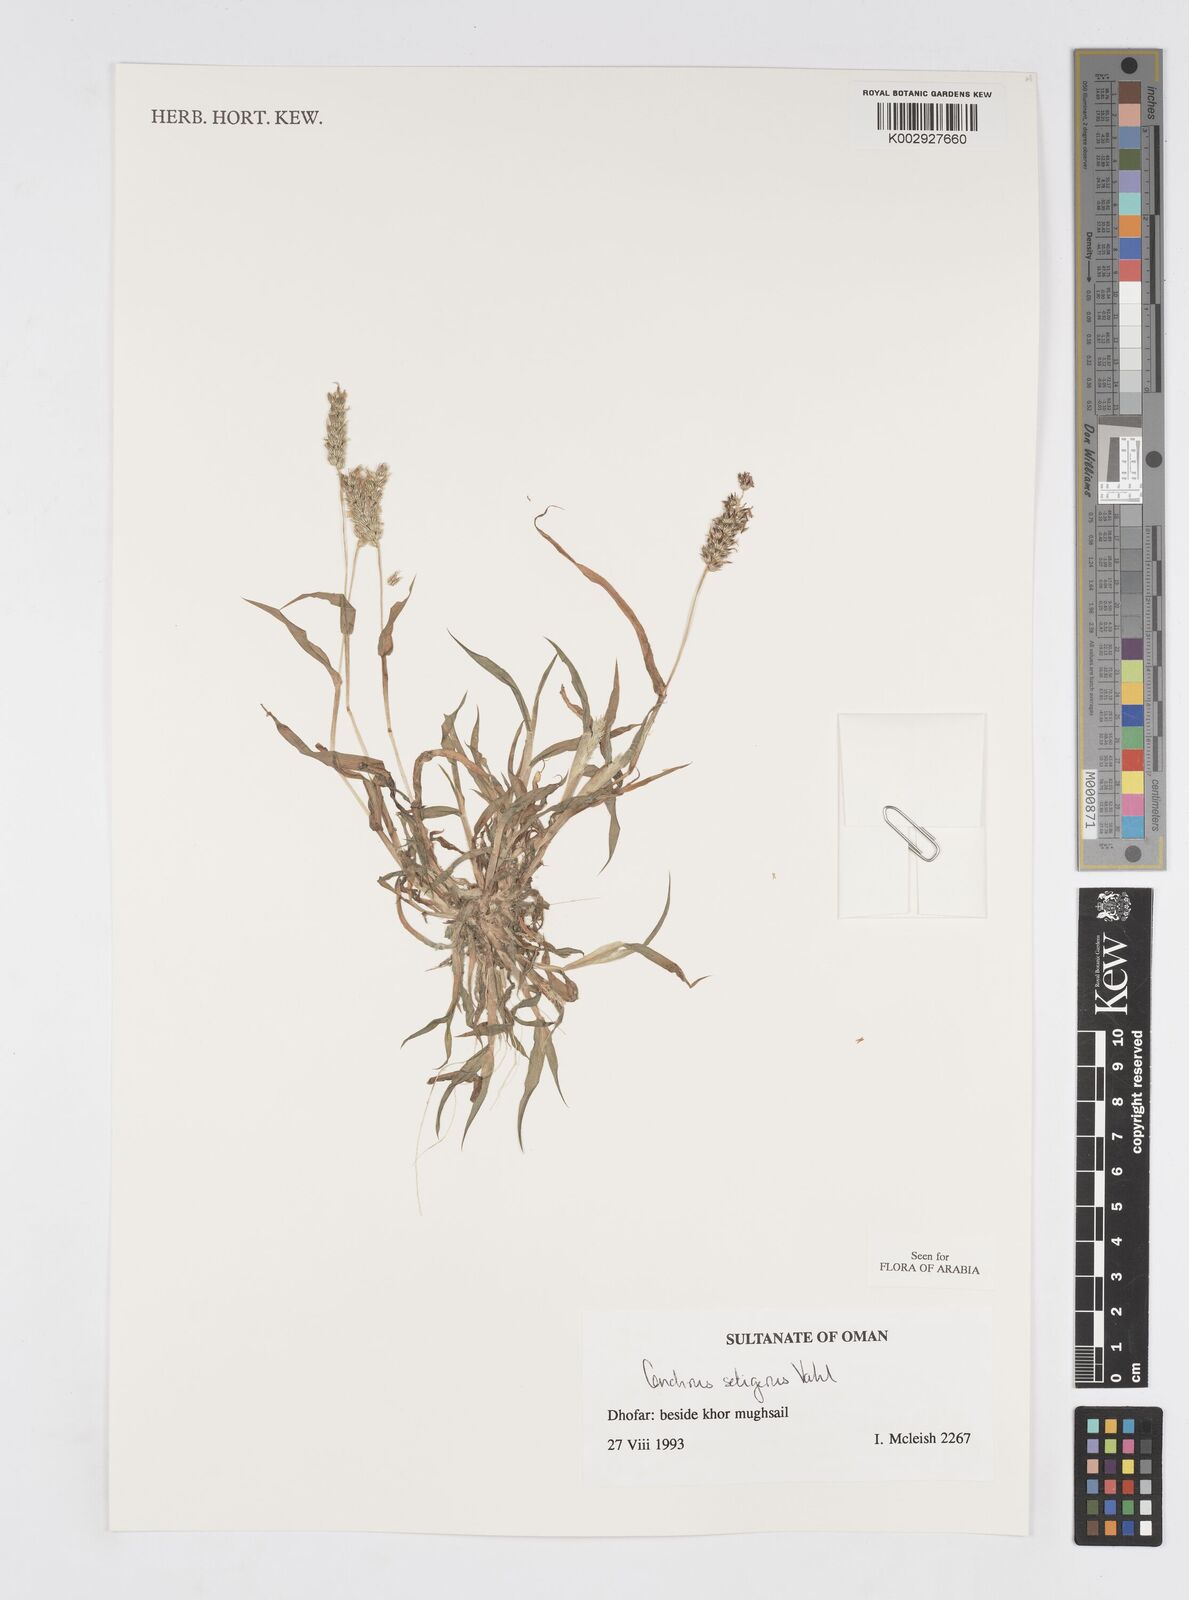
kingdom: Plantae
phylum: Tracheophyta
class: Liliopsida
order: Poales
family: Poaceae
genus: Cenchrus
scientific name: Cenchrus setigerus
